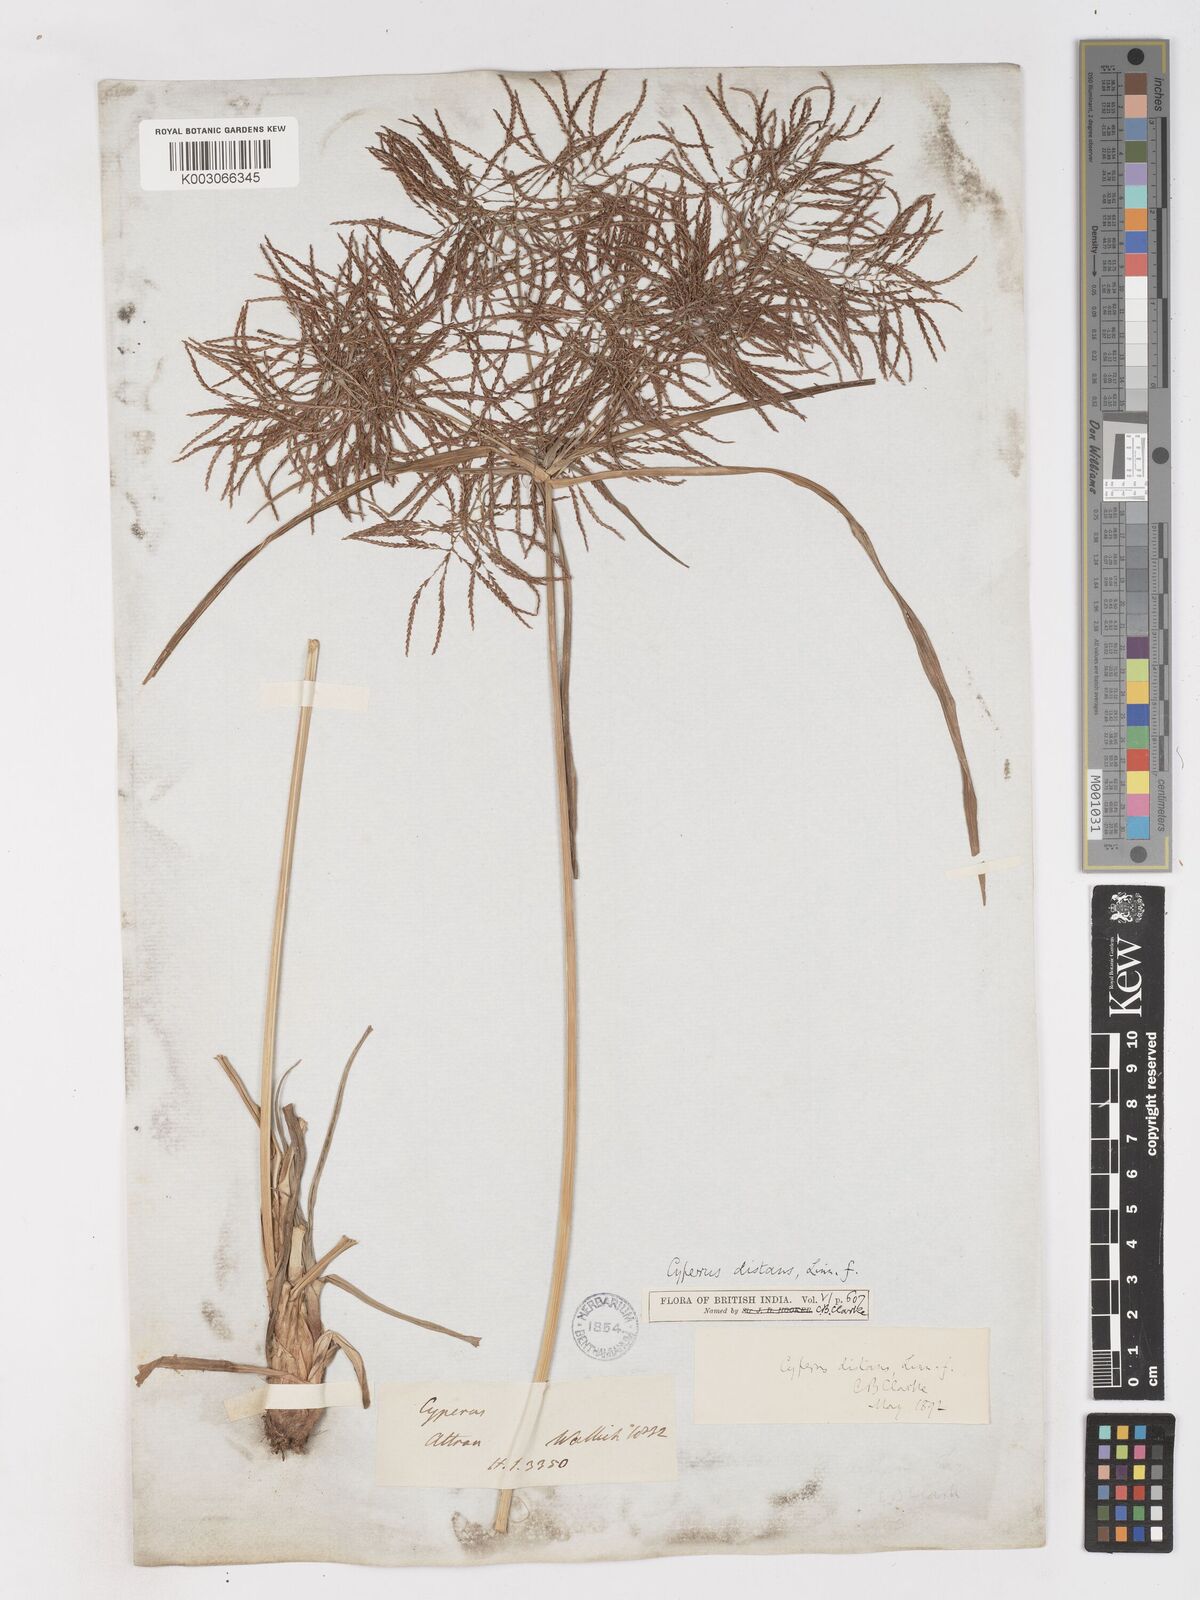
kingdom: Plantae
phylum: Tracheophyta
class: Liliopsida
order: Poales
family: Cyperaceae
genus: Cyperus
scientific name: Cyperus distans
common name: Slender cyperus
